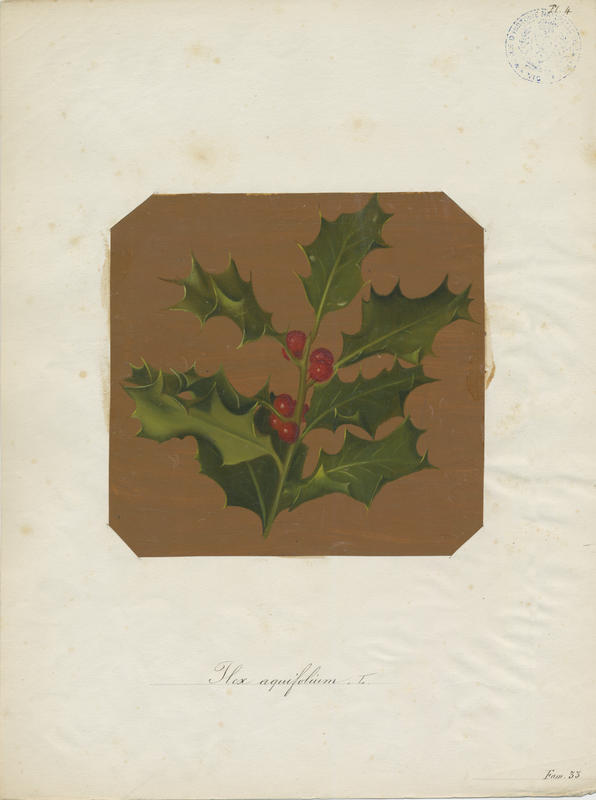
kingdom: Plantae
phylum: Tracheophyta
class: Magnoliopsida
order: Aquifoliales
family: Aquifoliaceae
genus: Ilex
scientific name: Ilex aquifolium
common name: English holly
